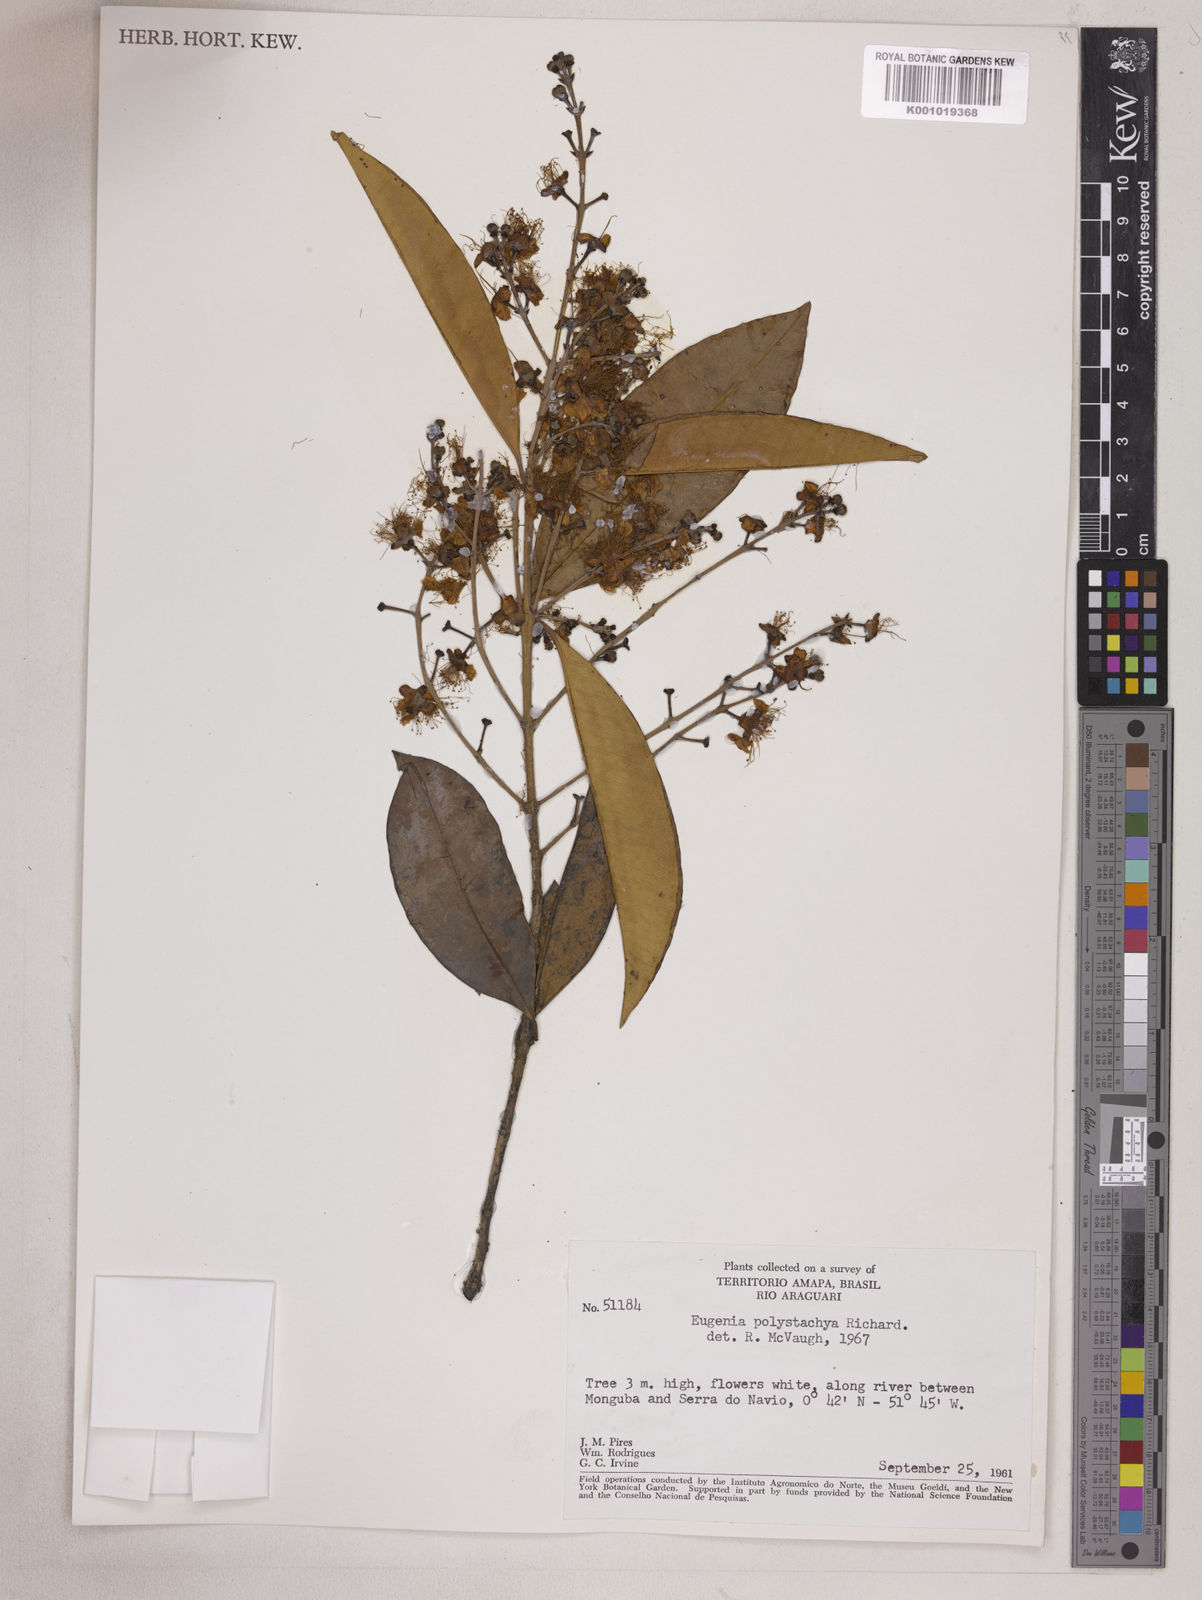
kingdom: Plantae
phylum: Tracheophyta
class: Magnoliopsida
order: Myrtales
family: Myrtaceae
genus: Eugenia
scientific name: Eugenia polystachya
